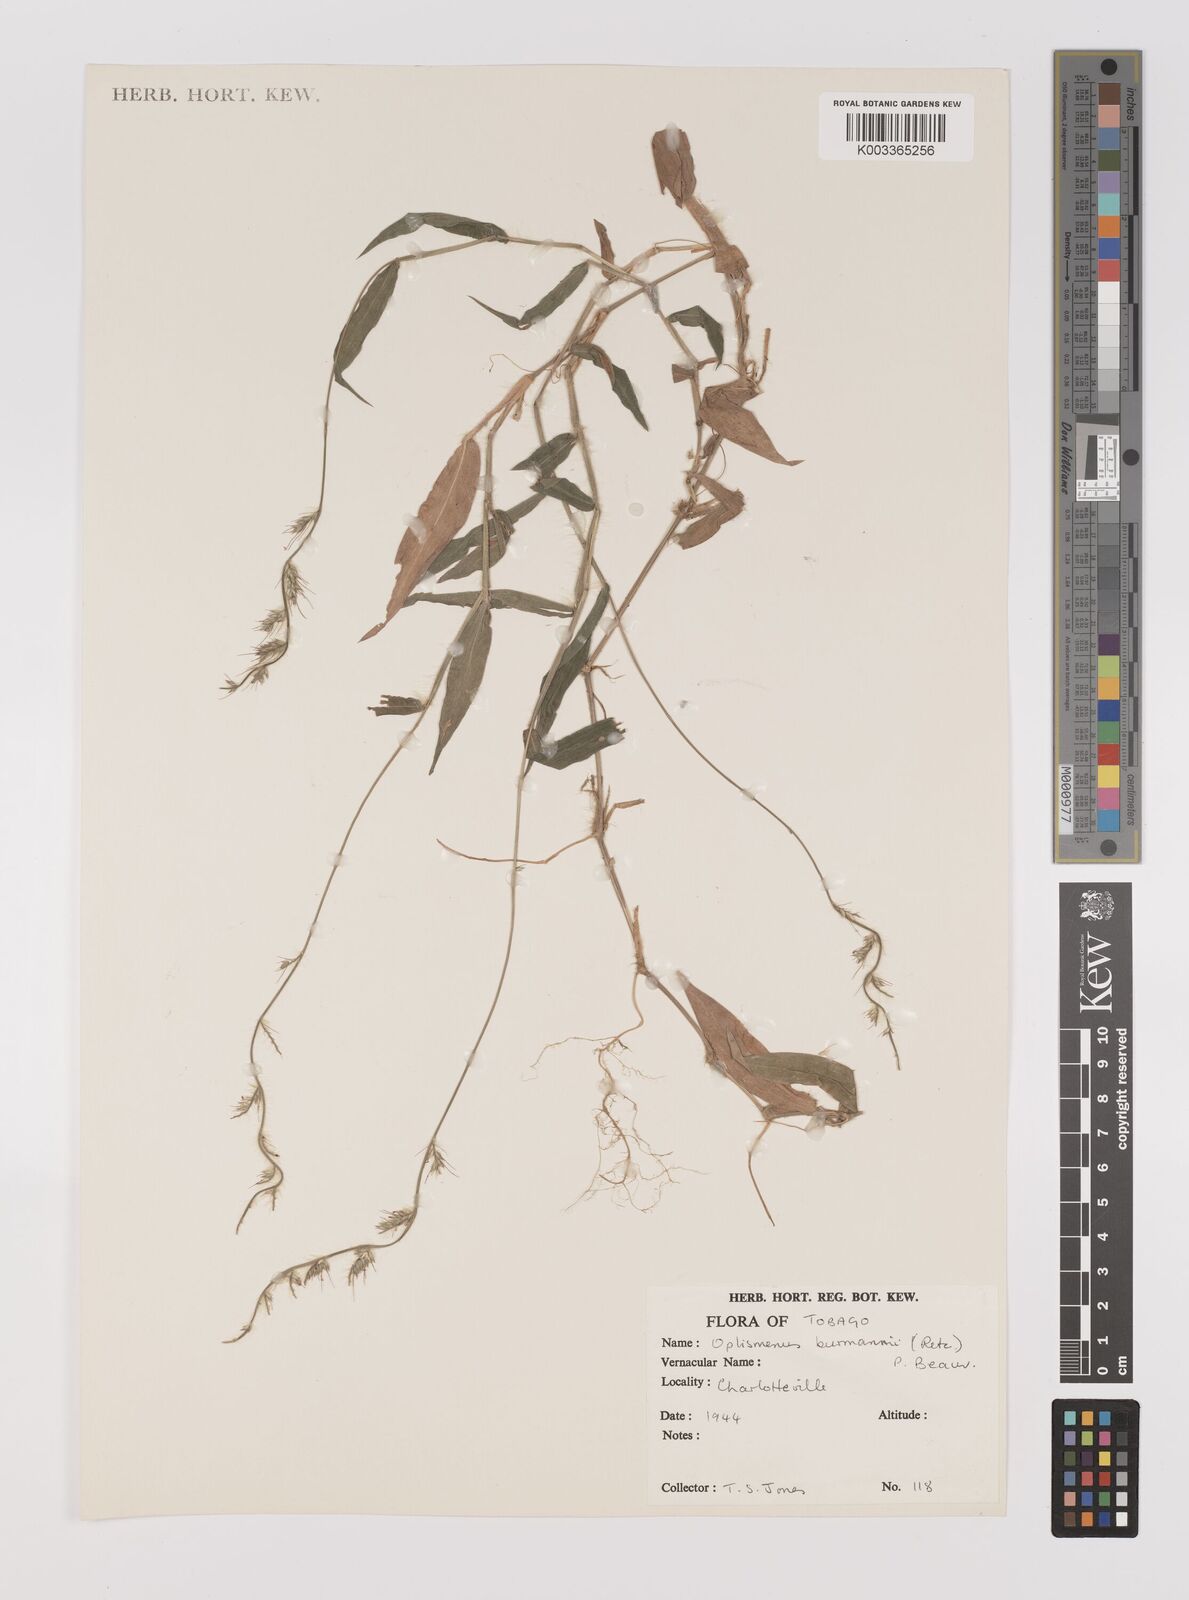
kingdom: Plantae
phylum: Tracheophyta
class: Liliopsida
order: Poales
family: Poaceae
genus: Oplismenus
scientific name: Oplismenus hirtellus
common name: Basketgrass
